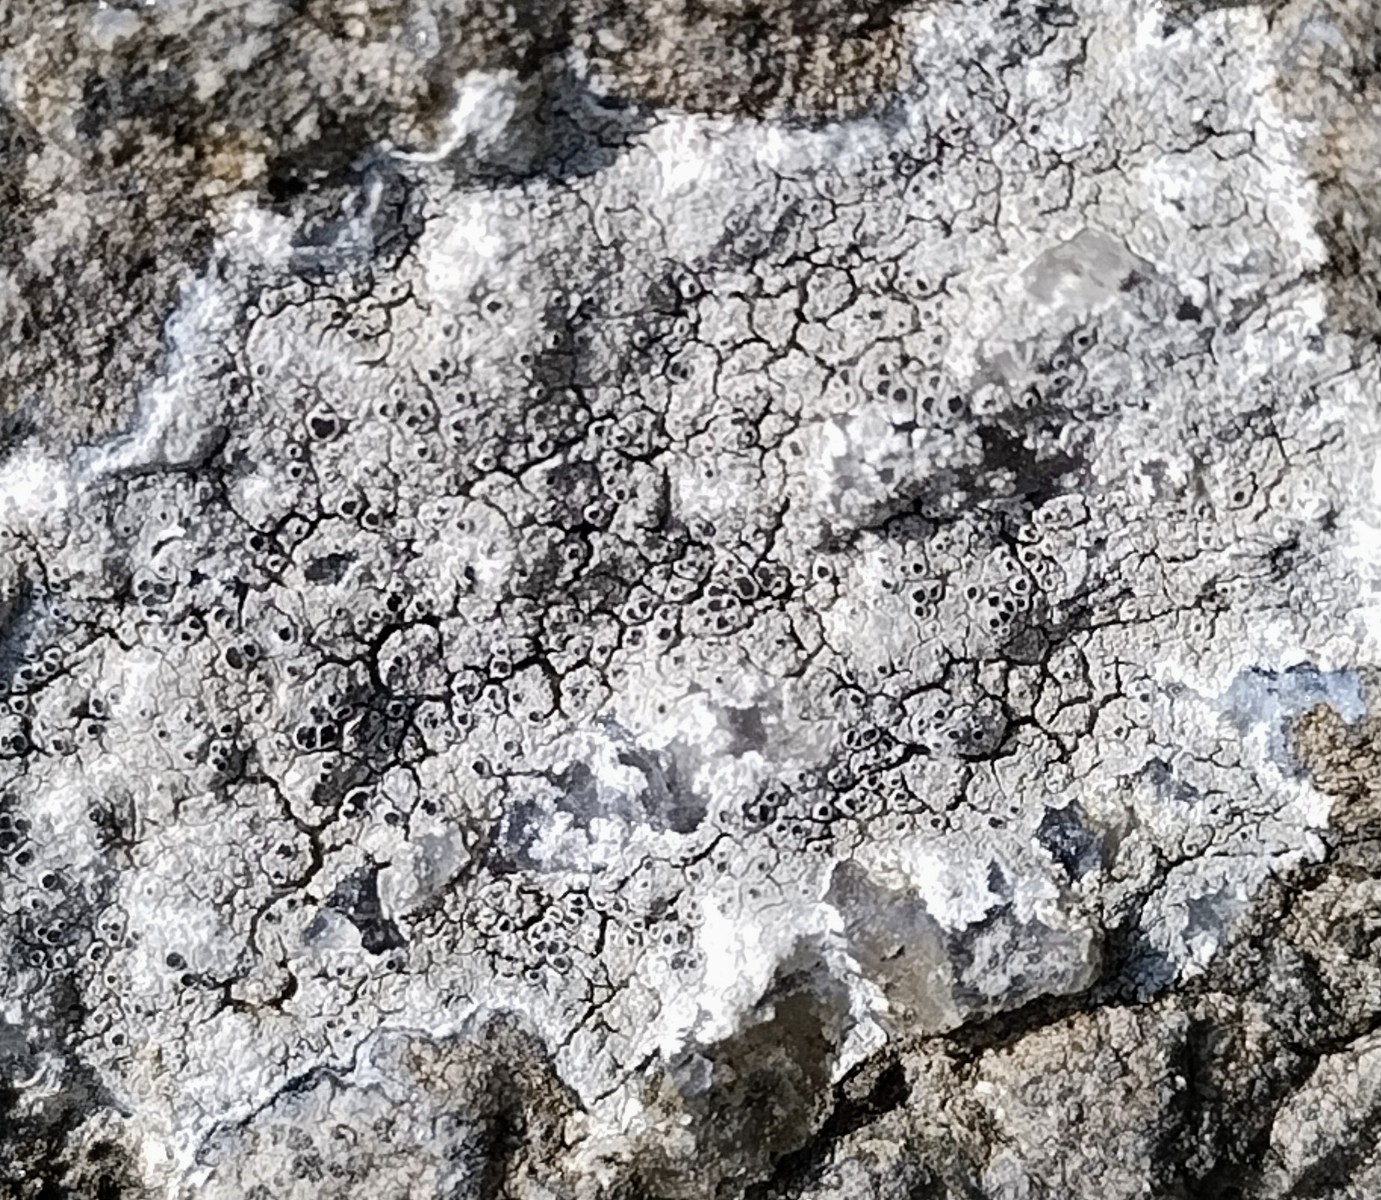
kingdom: Fungi
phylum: Ascomycota
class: Lecanoromycetes
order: Lecanorales
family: Tephromelataceae
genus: Tephromela
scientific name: Tephromela atra
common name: sortfrugtet kantskivelav
